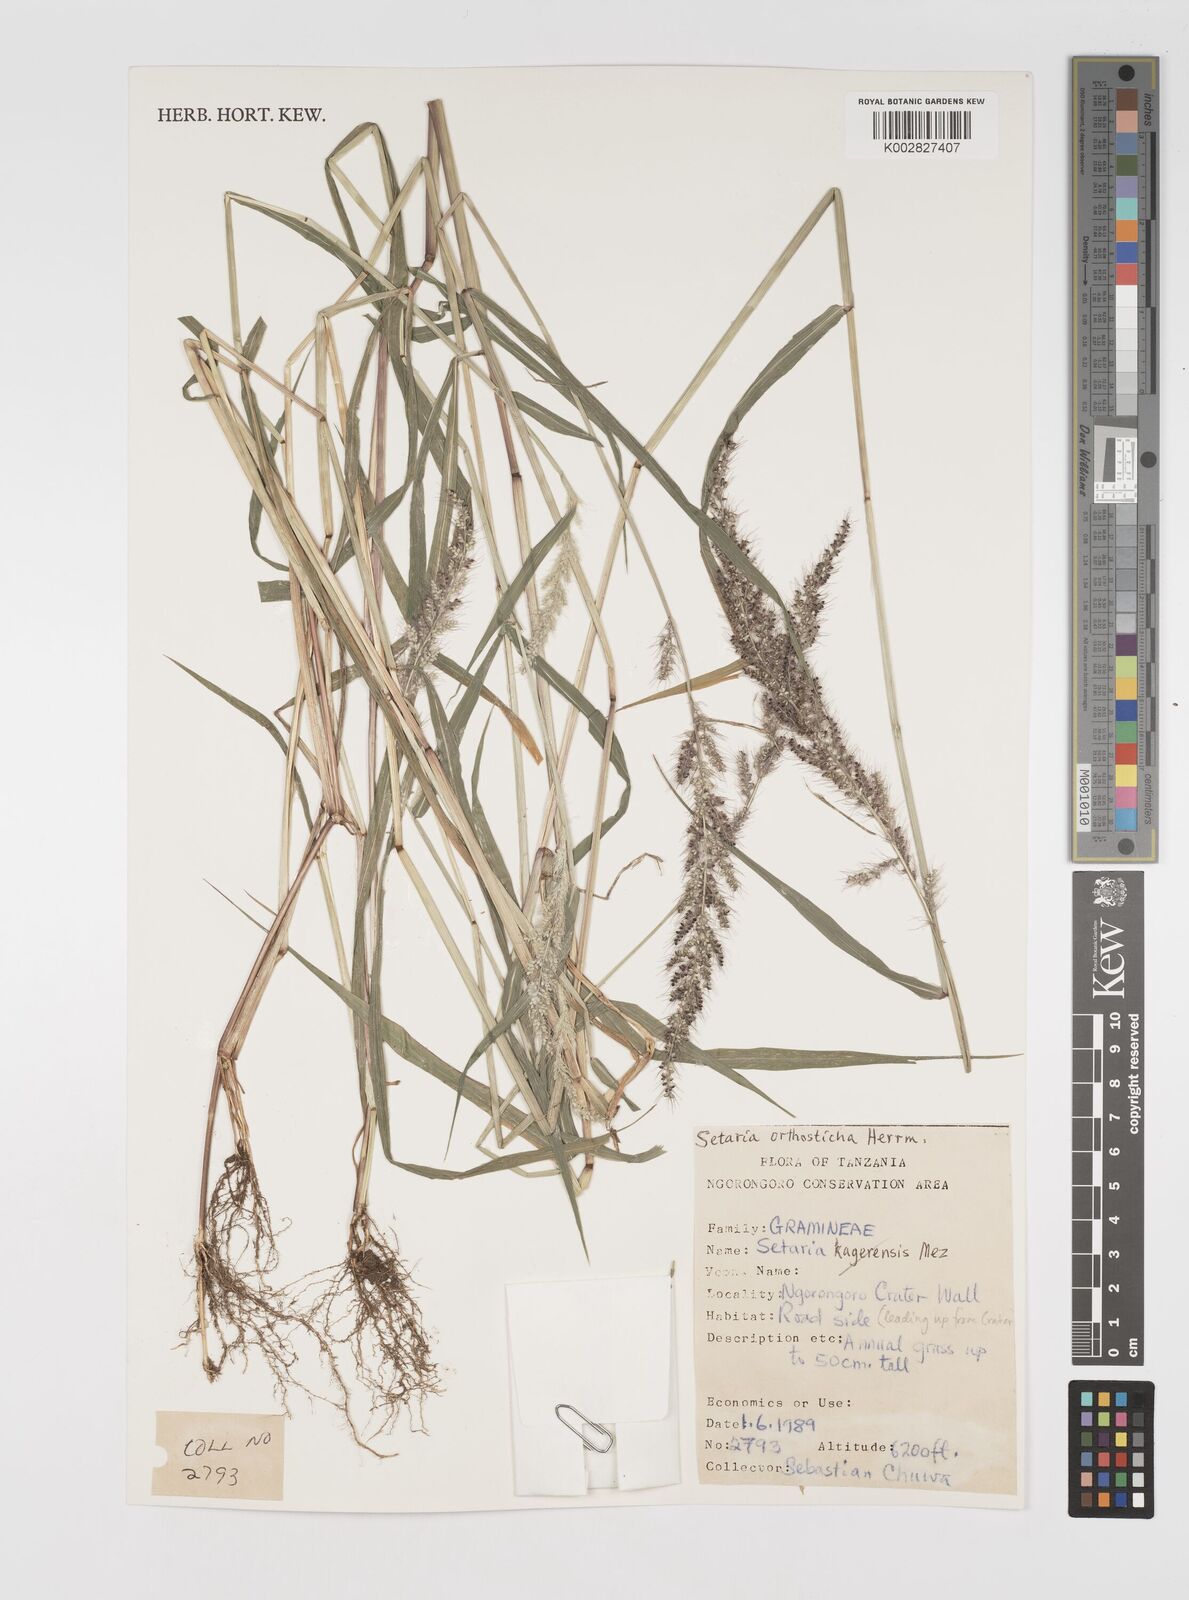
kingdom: Plantae
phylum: Tracheophyta
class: Liliopsida
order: Poales
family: Poaceae
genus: Setaria
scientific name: Setaria orthosticha
